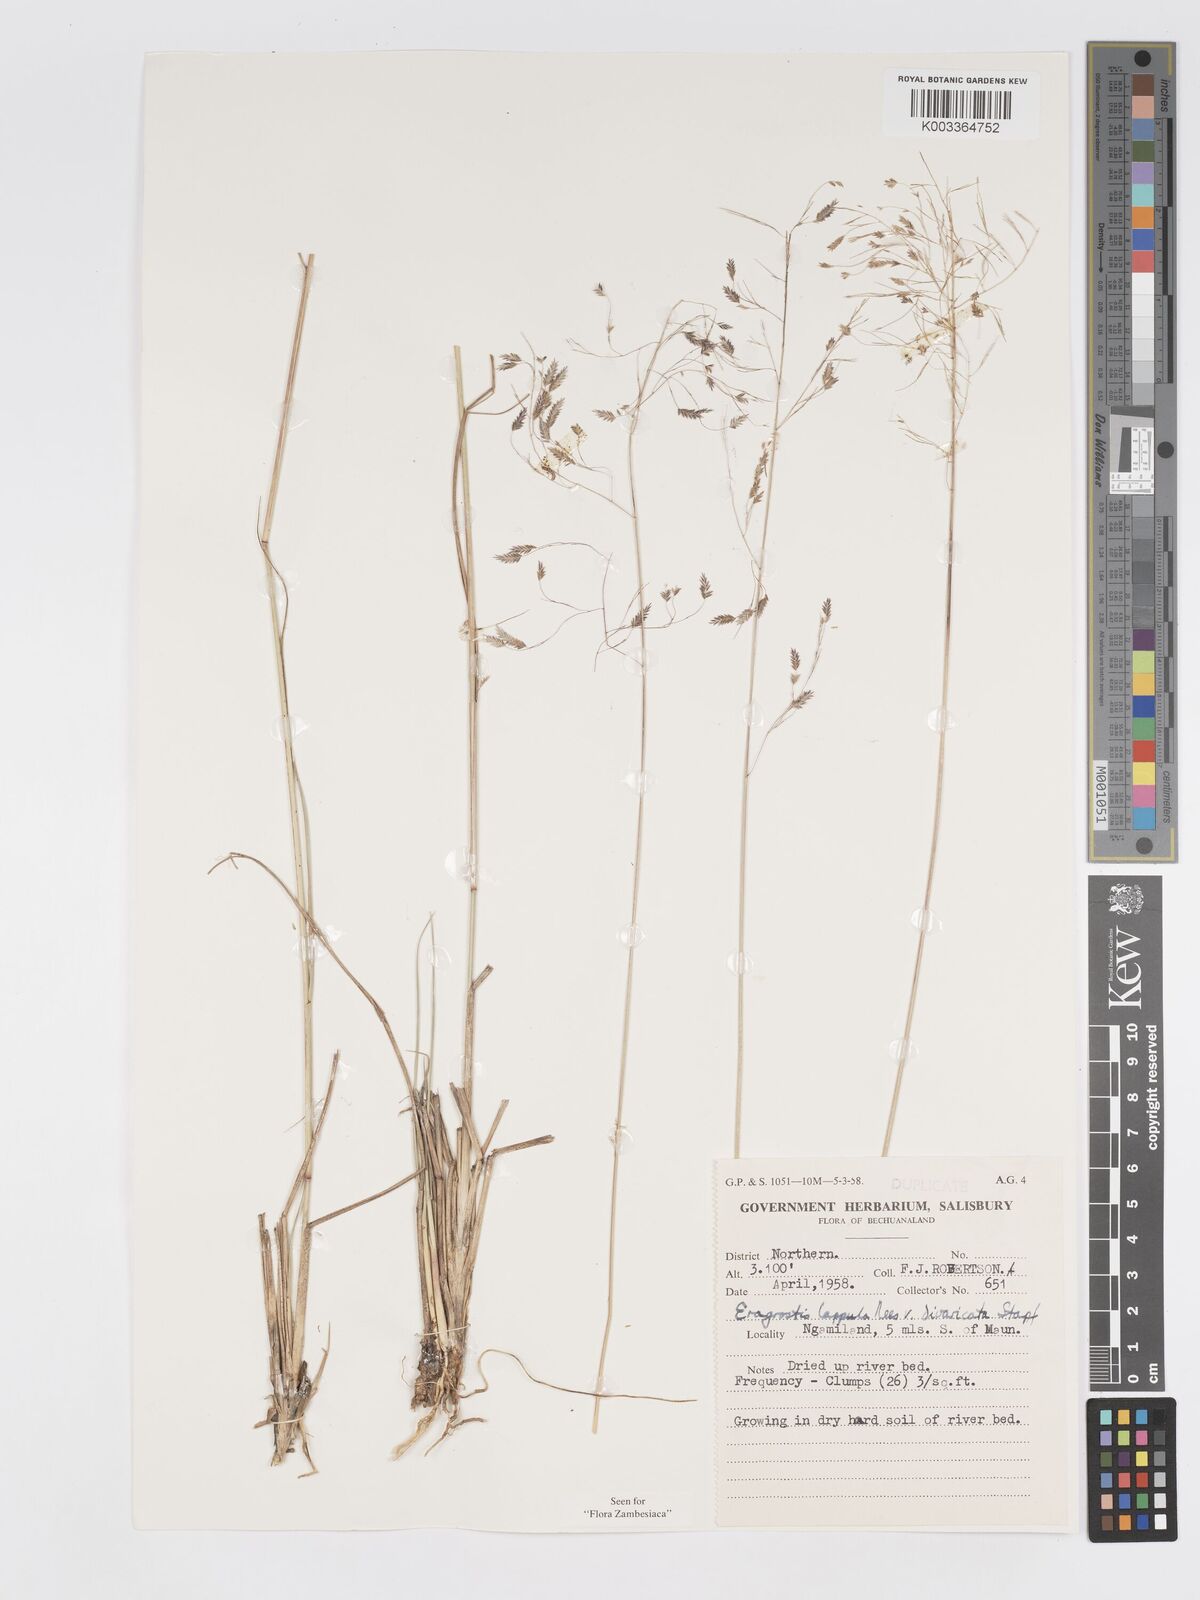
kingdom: Plantae
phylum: Tracheophyta
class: Liliopsida
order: Poales
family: Poaceae
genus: Eragrostis
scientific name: Eragrostis lappula
